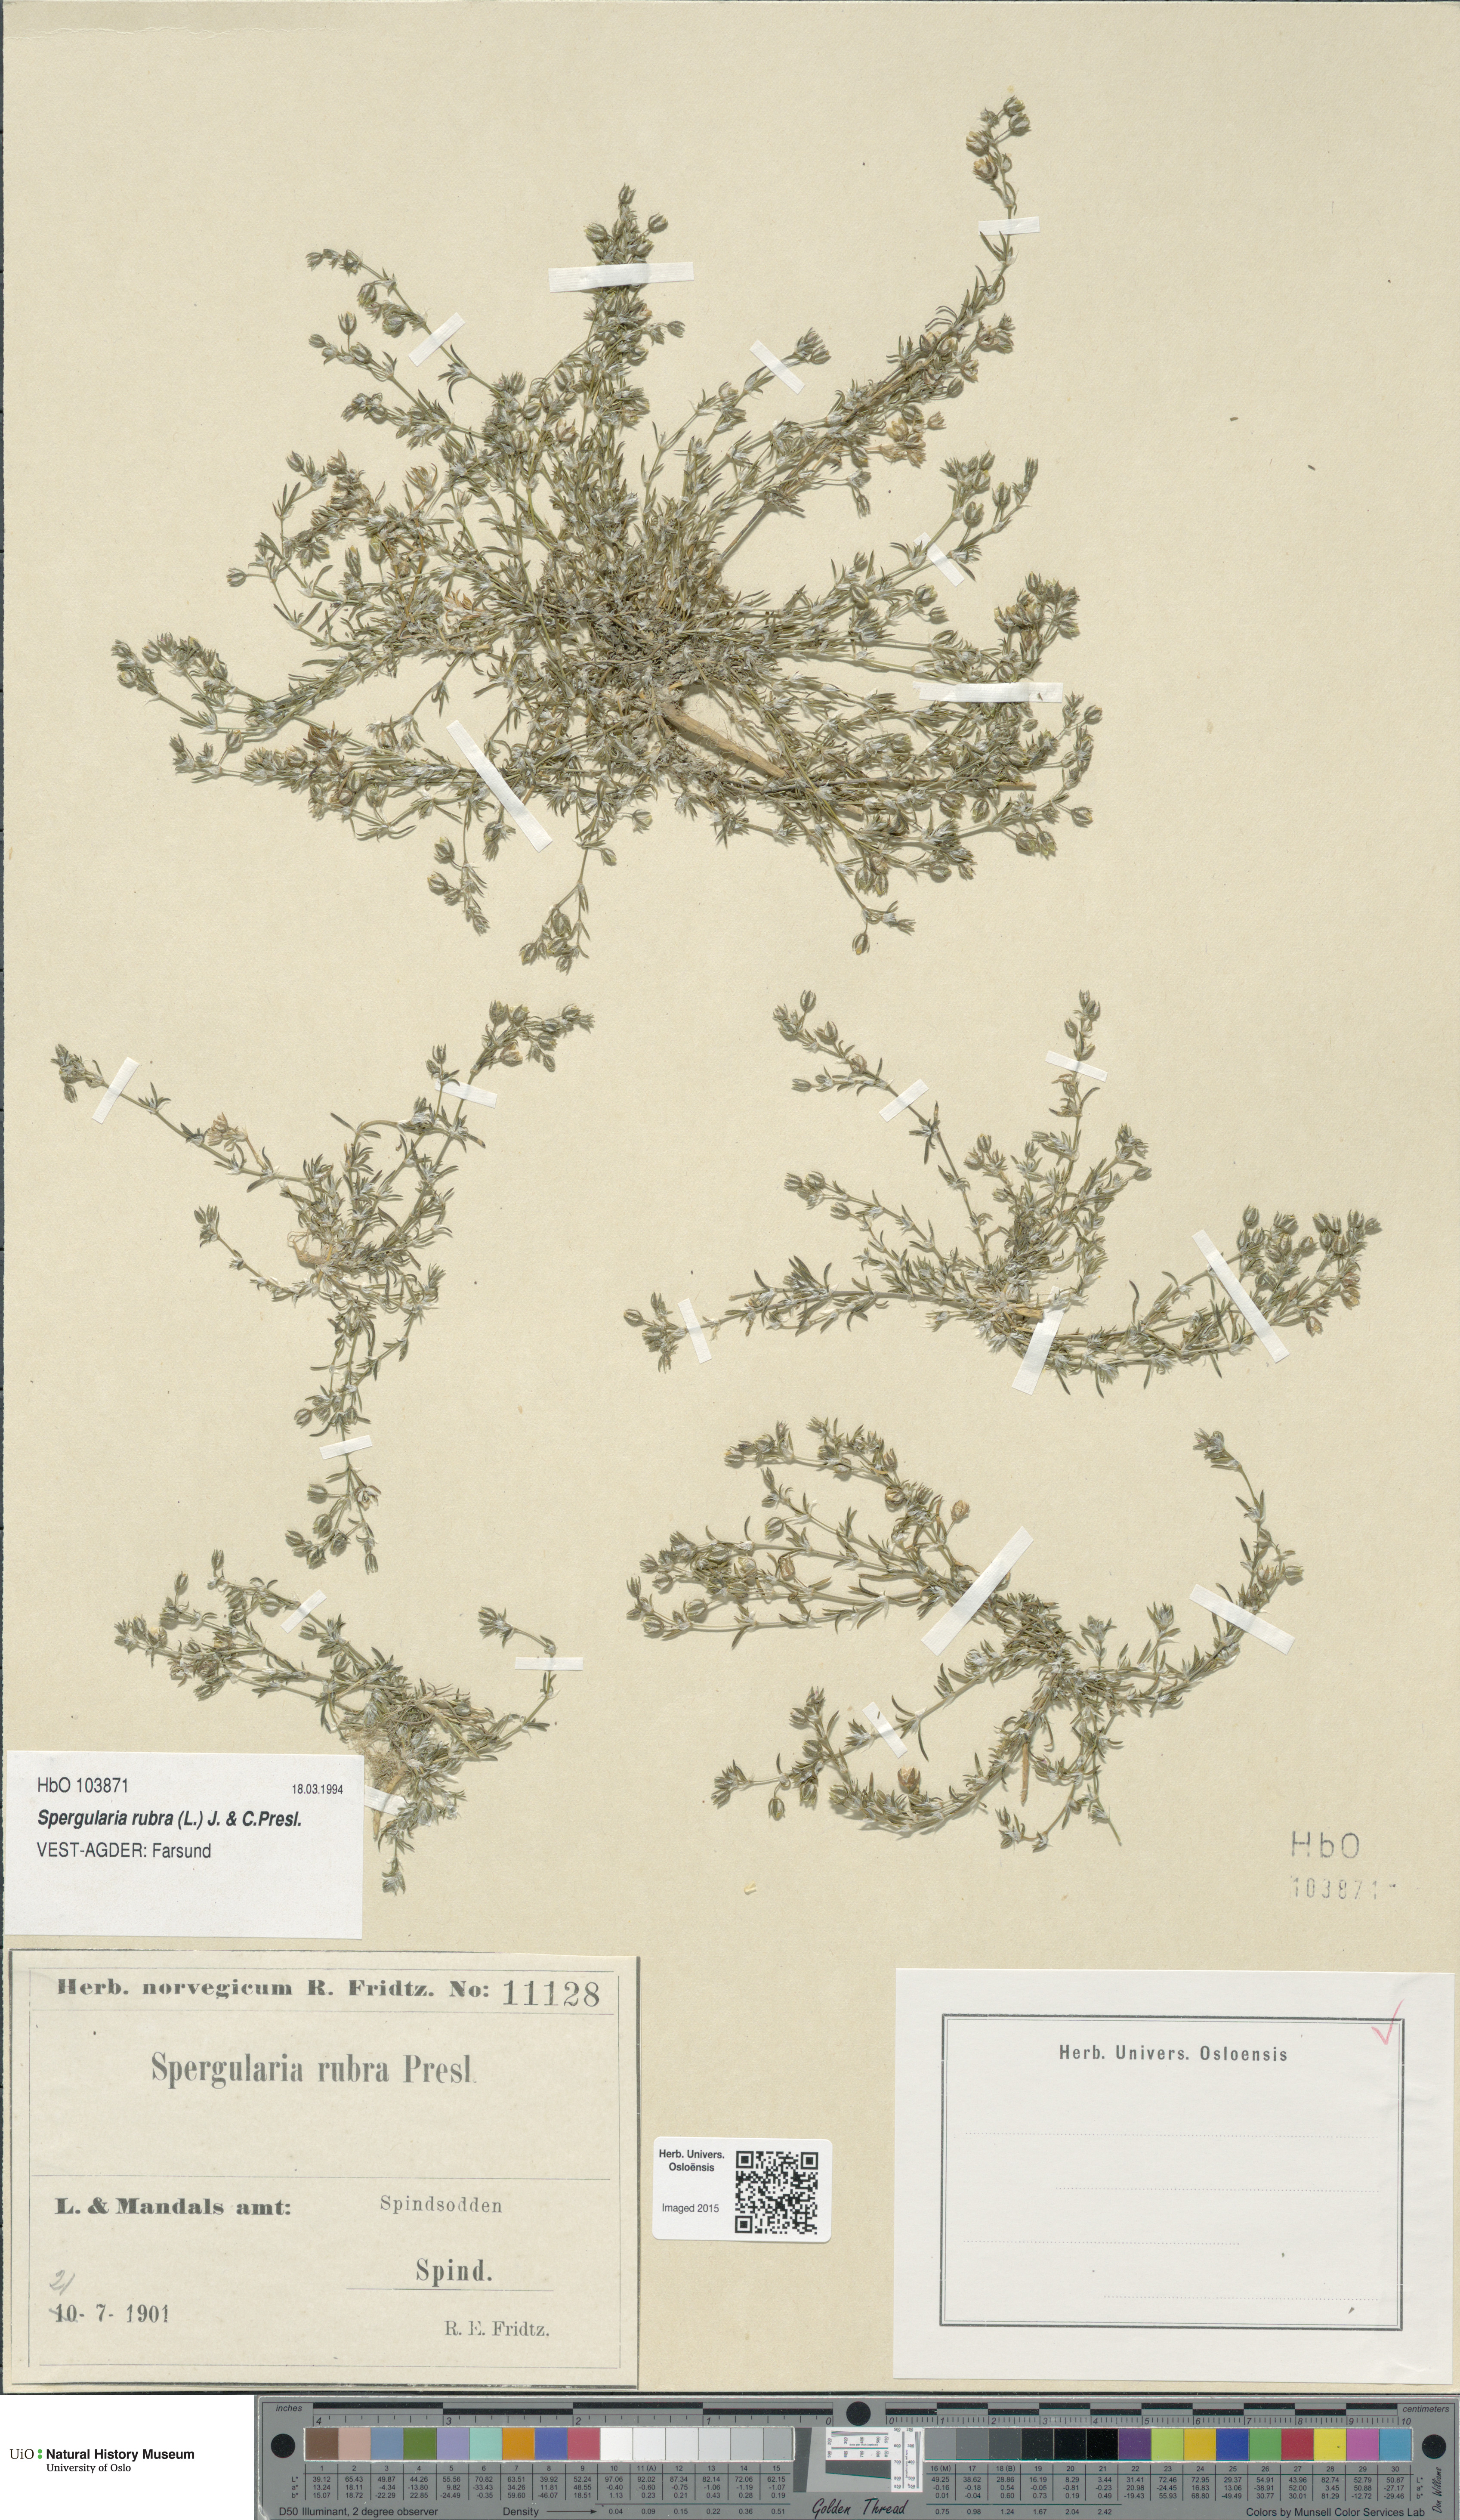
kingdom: Plantae
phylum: Tracheophyta
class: Magnoliopsida
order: Caryophyllales
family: Caryophyllaceae
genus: Spergularia
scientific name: Spergularia rubra
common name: Red sand-spurrey
